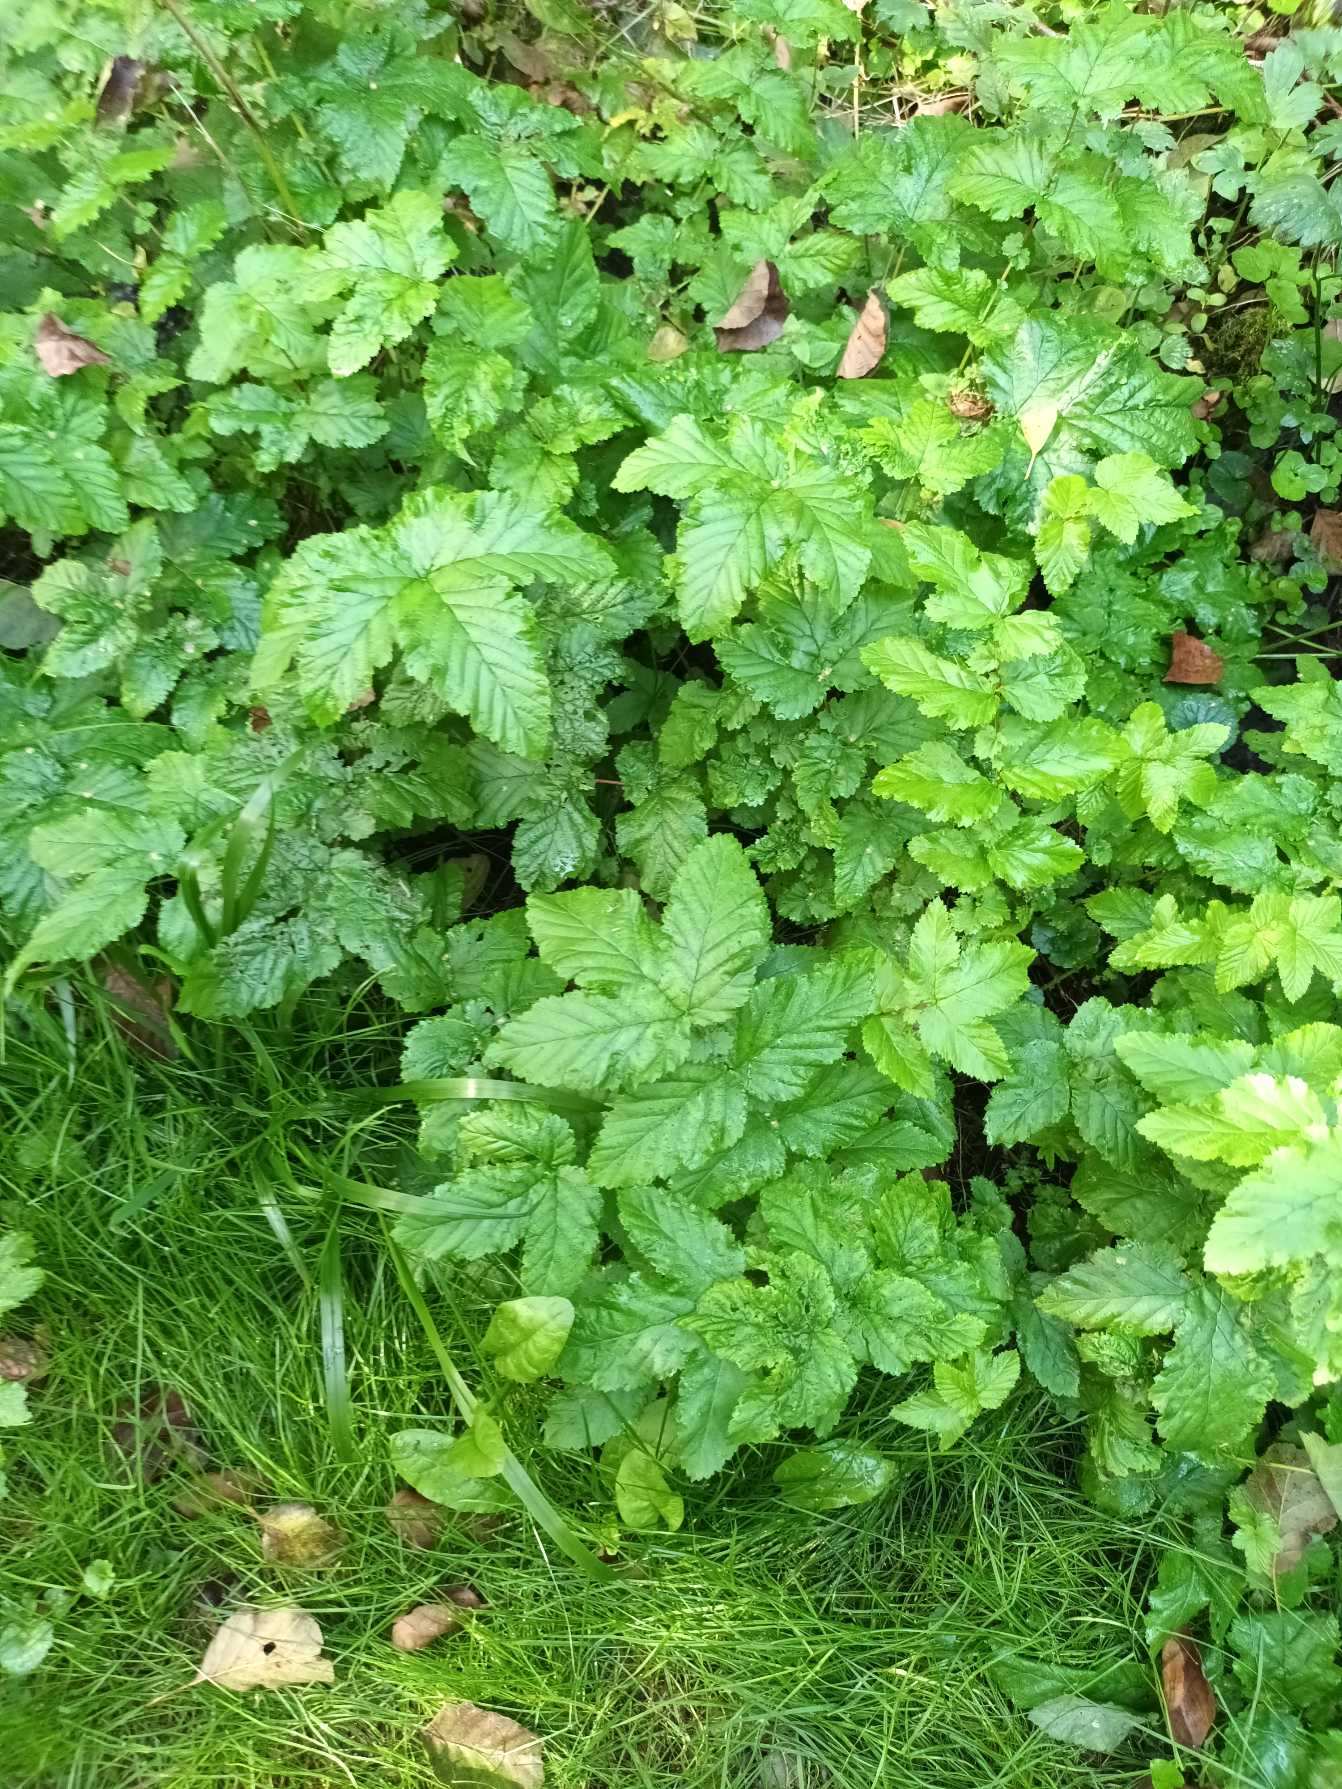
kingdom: Plantae
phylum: Tracheophyta
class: Magnoliopsida
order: Rosales
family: Rosaceae
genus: Filipendula
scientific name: Filipendula ulmaria
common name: Almindelig mjødurt
